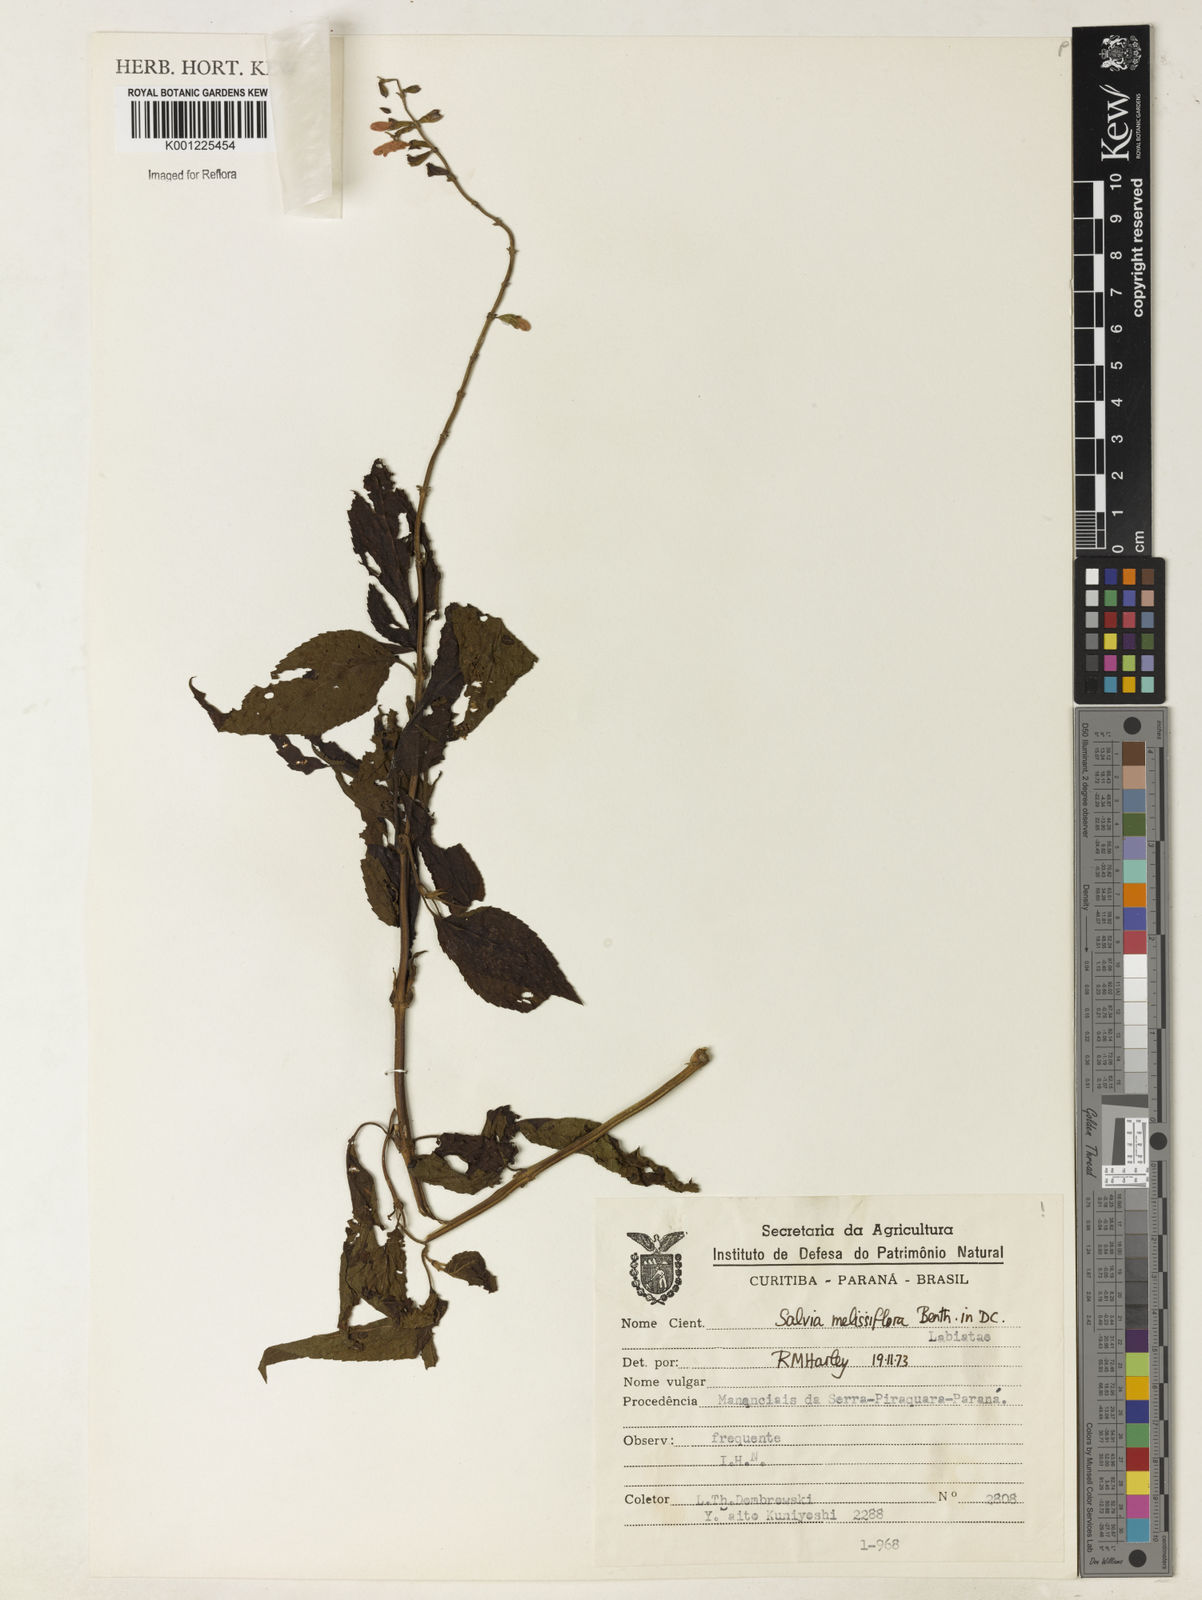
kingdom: Plantae
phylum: Tracheophyta
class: Magnoliopsida
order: Lamiales
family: Lamiaceae
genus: Salvia
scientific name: Salvia melissiflora
